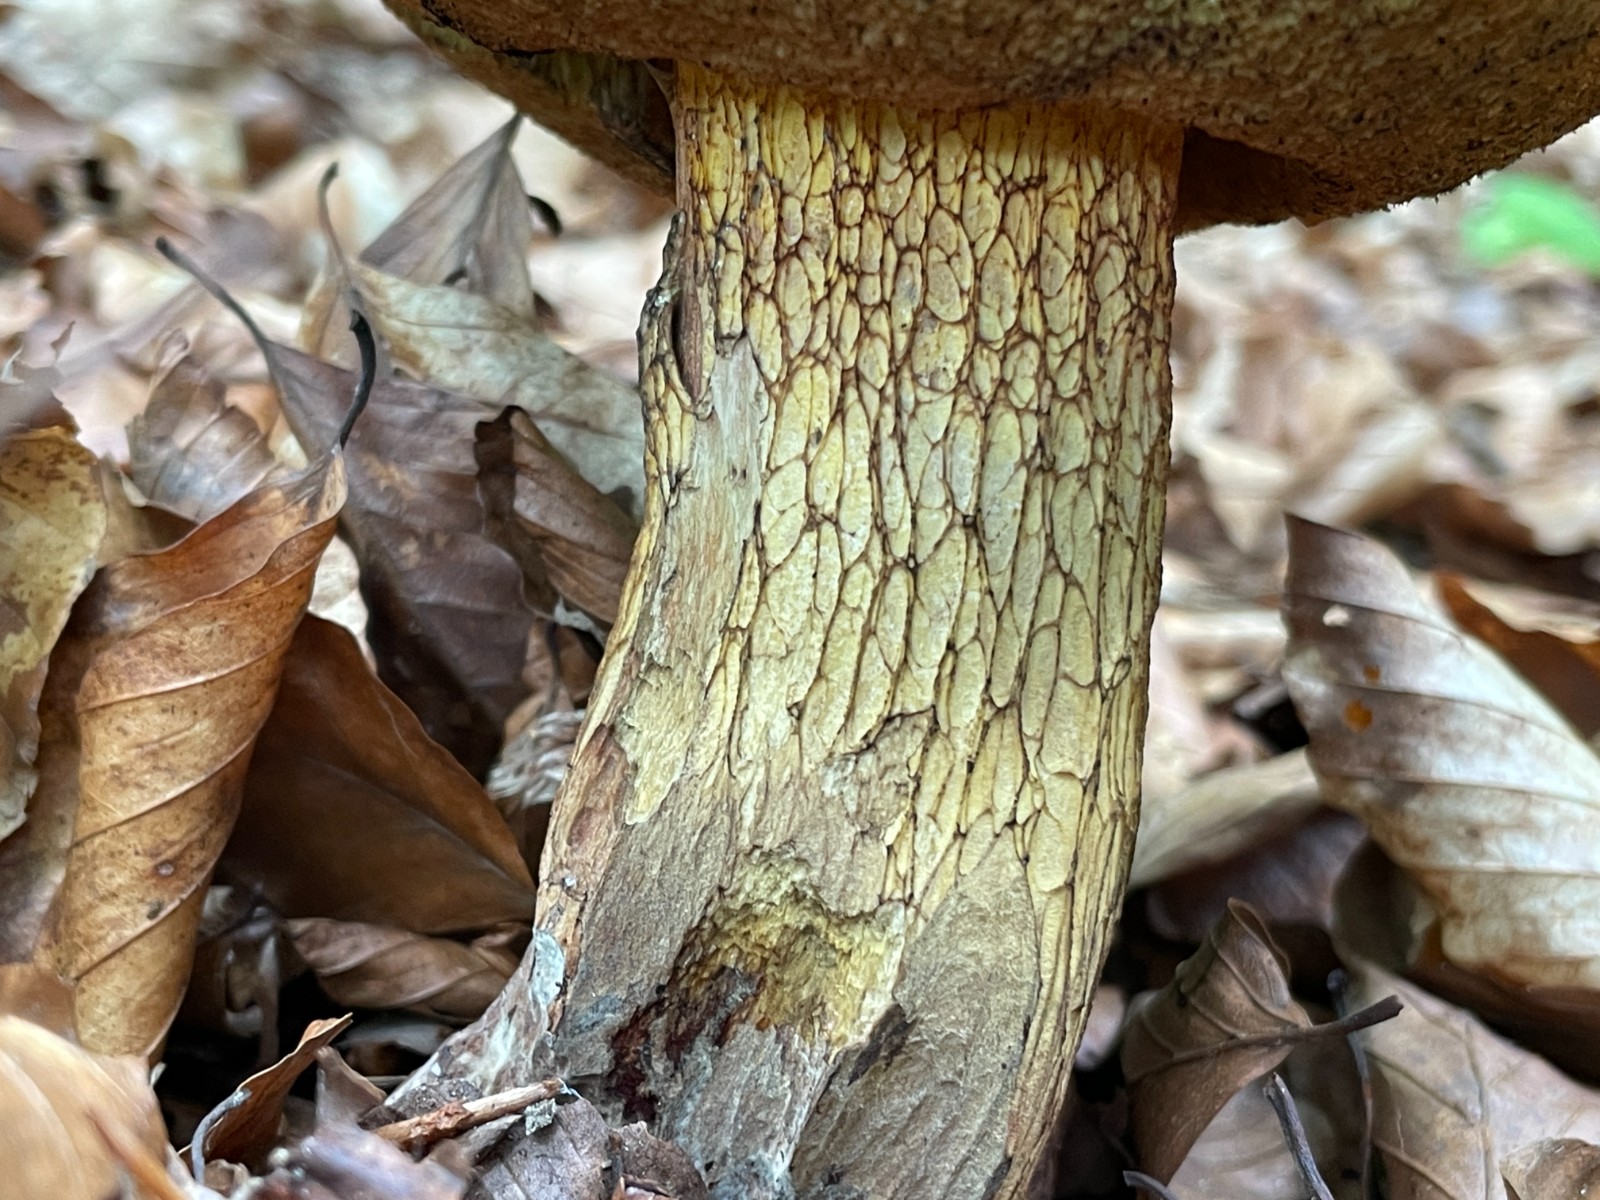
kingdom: Fungi
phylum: Basidiomycota
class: Agaricomycetes
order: Boletales
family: Boletaceae
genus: Suillellus
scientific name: Suillellus luridus
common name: netstokket indigorørhat
